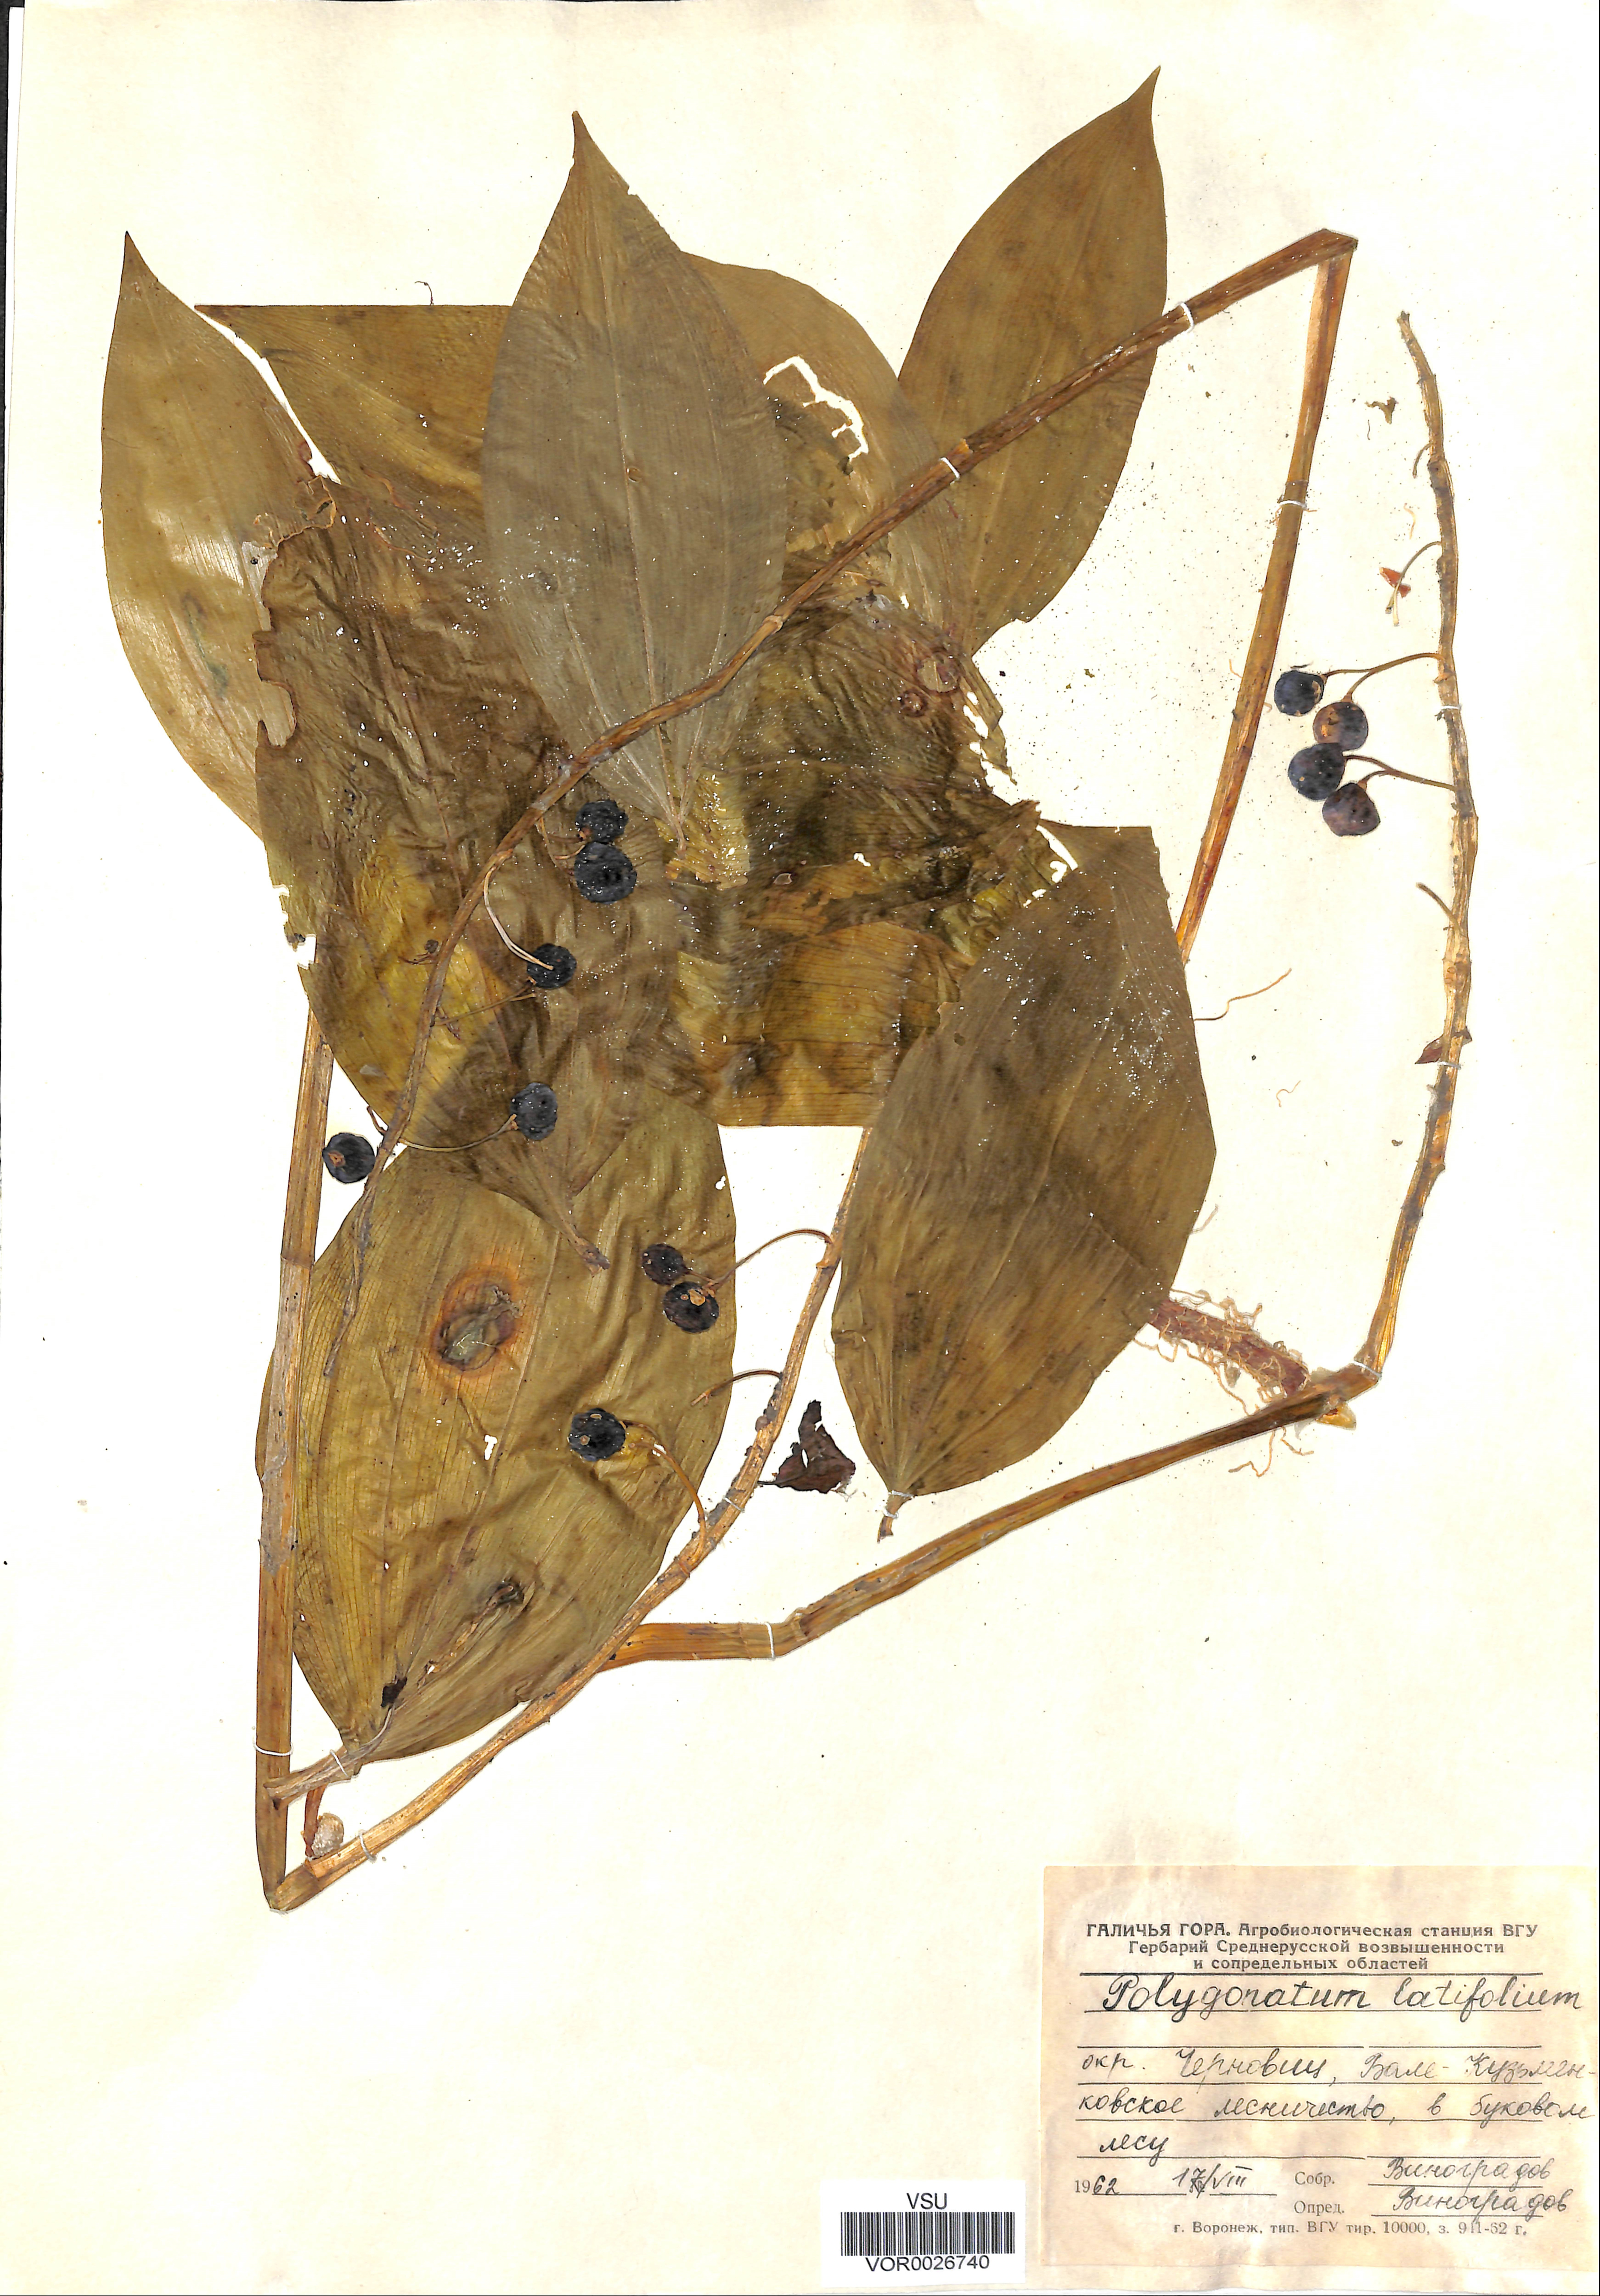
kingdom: Plantae
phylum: Tracheophyta
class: Liliopsida
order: Asparagales
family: Asparagaceae
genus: Polygonatum
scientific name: Polygonatum latifolium
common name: Broadleaf solomon's seal
